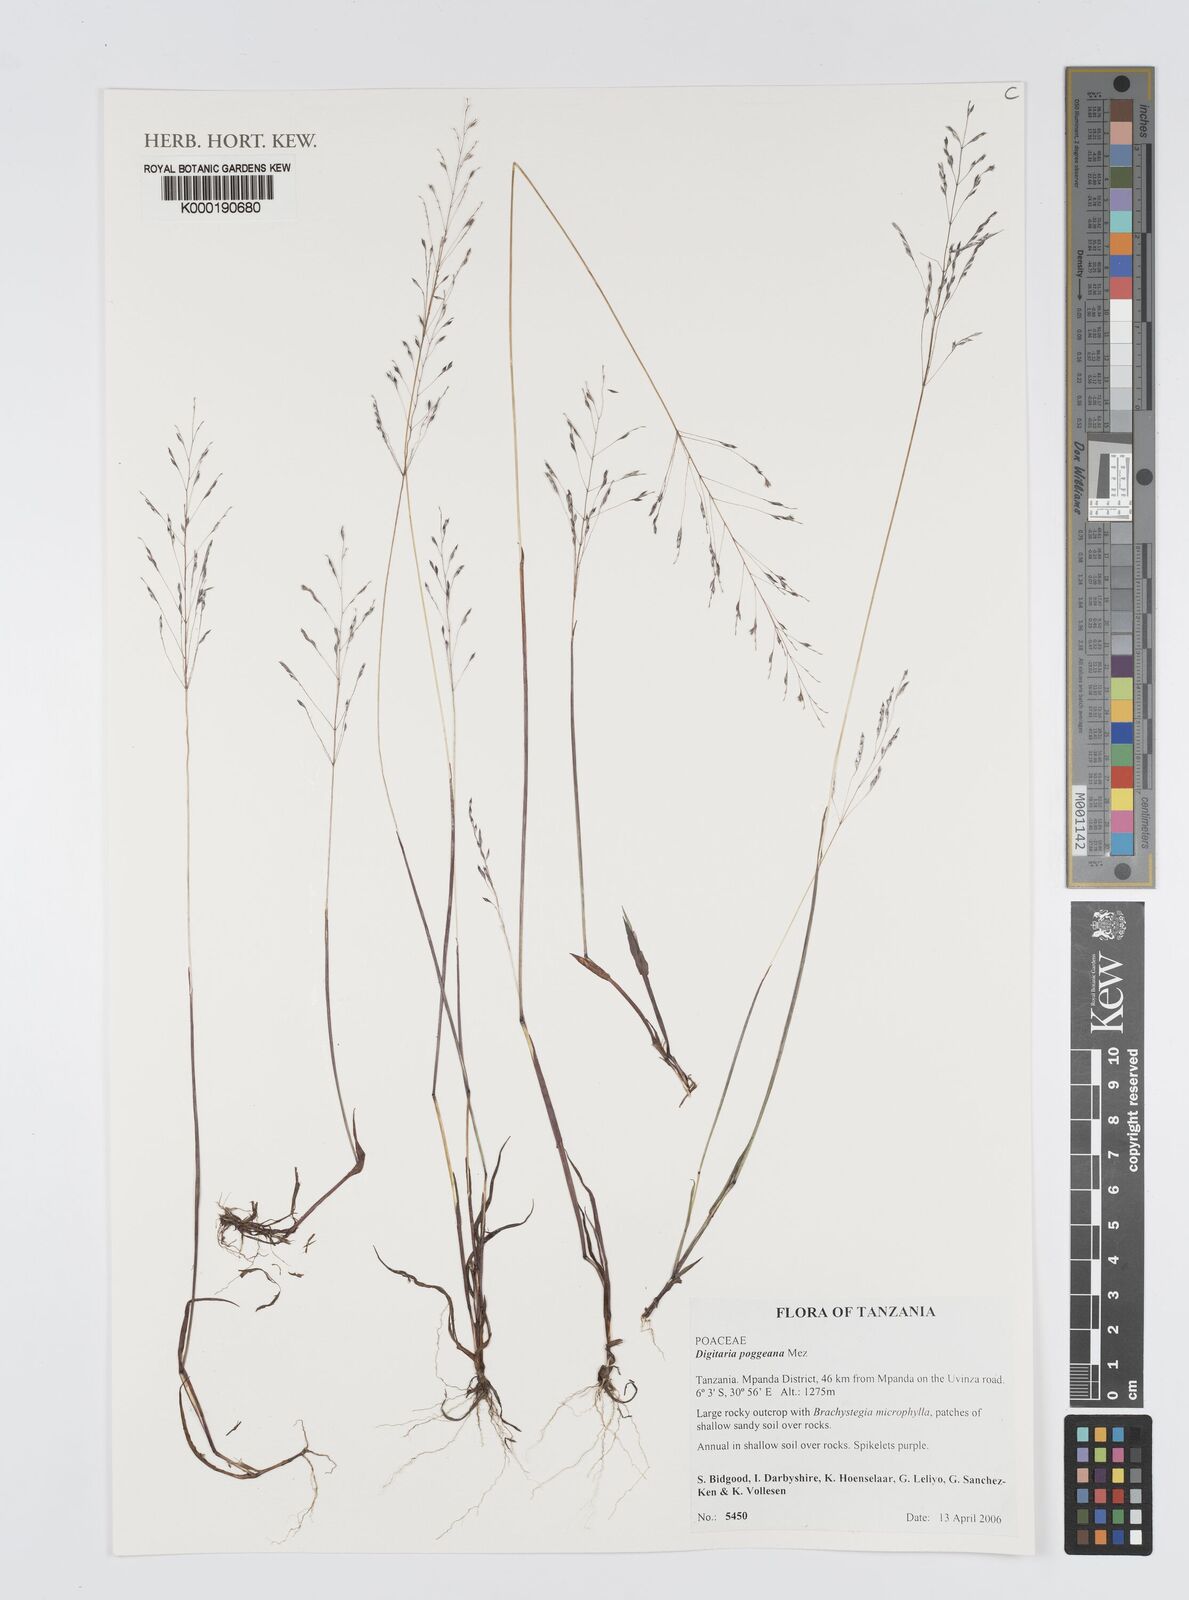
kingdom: Plantae
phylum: Tracheophyta
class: Liliopsida
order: Poales
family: Poaceae
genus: Digitaria
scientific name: Digitaria poggeana
